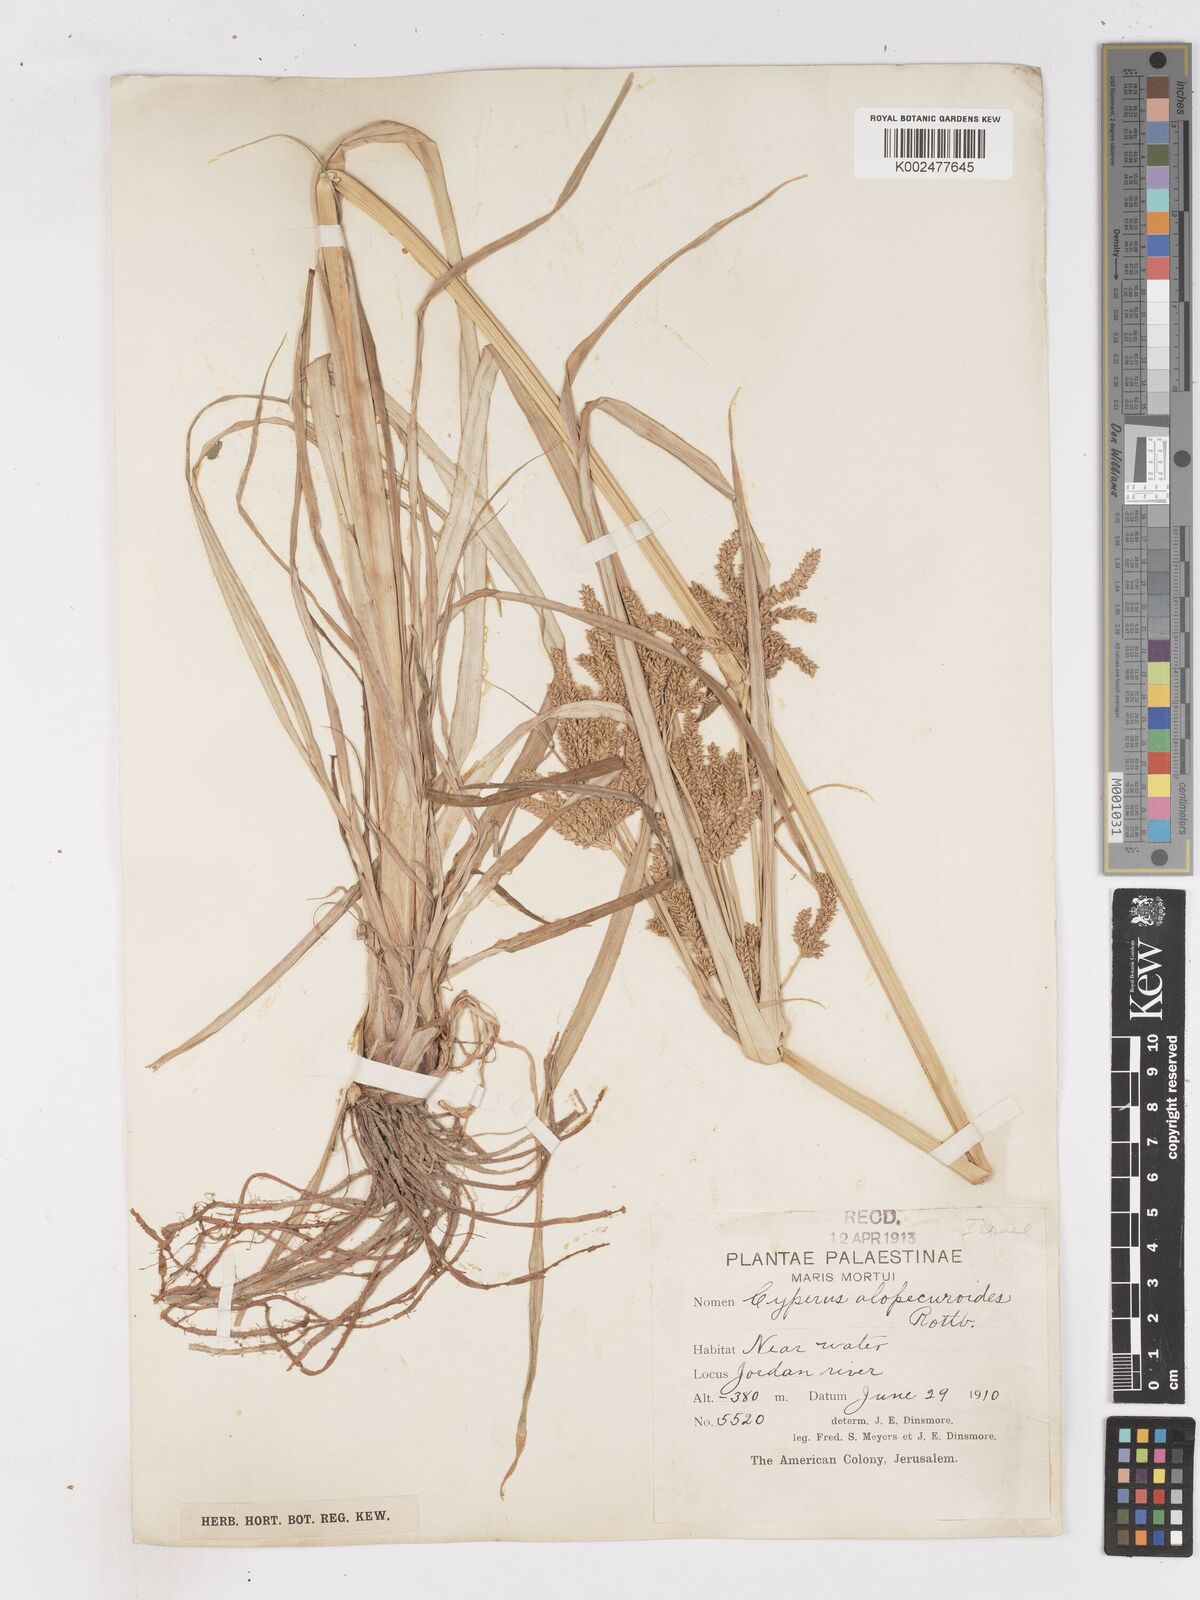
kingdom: Plantae
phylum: Tracheophyta
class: Liliopsida
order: Poales
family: Cyperaceae
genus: Cyperus
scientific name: Cyperus alopecuroides
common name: Foxtail flatsedge
